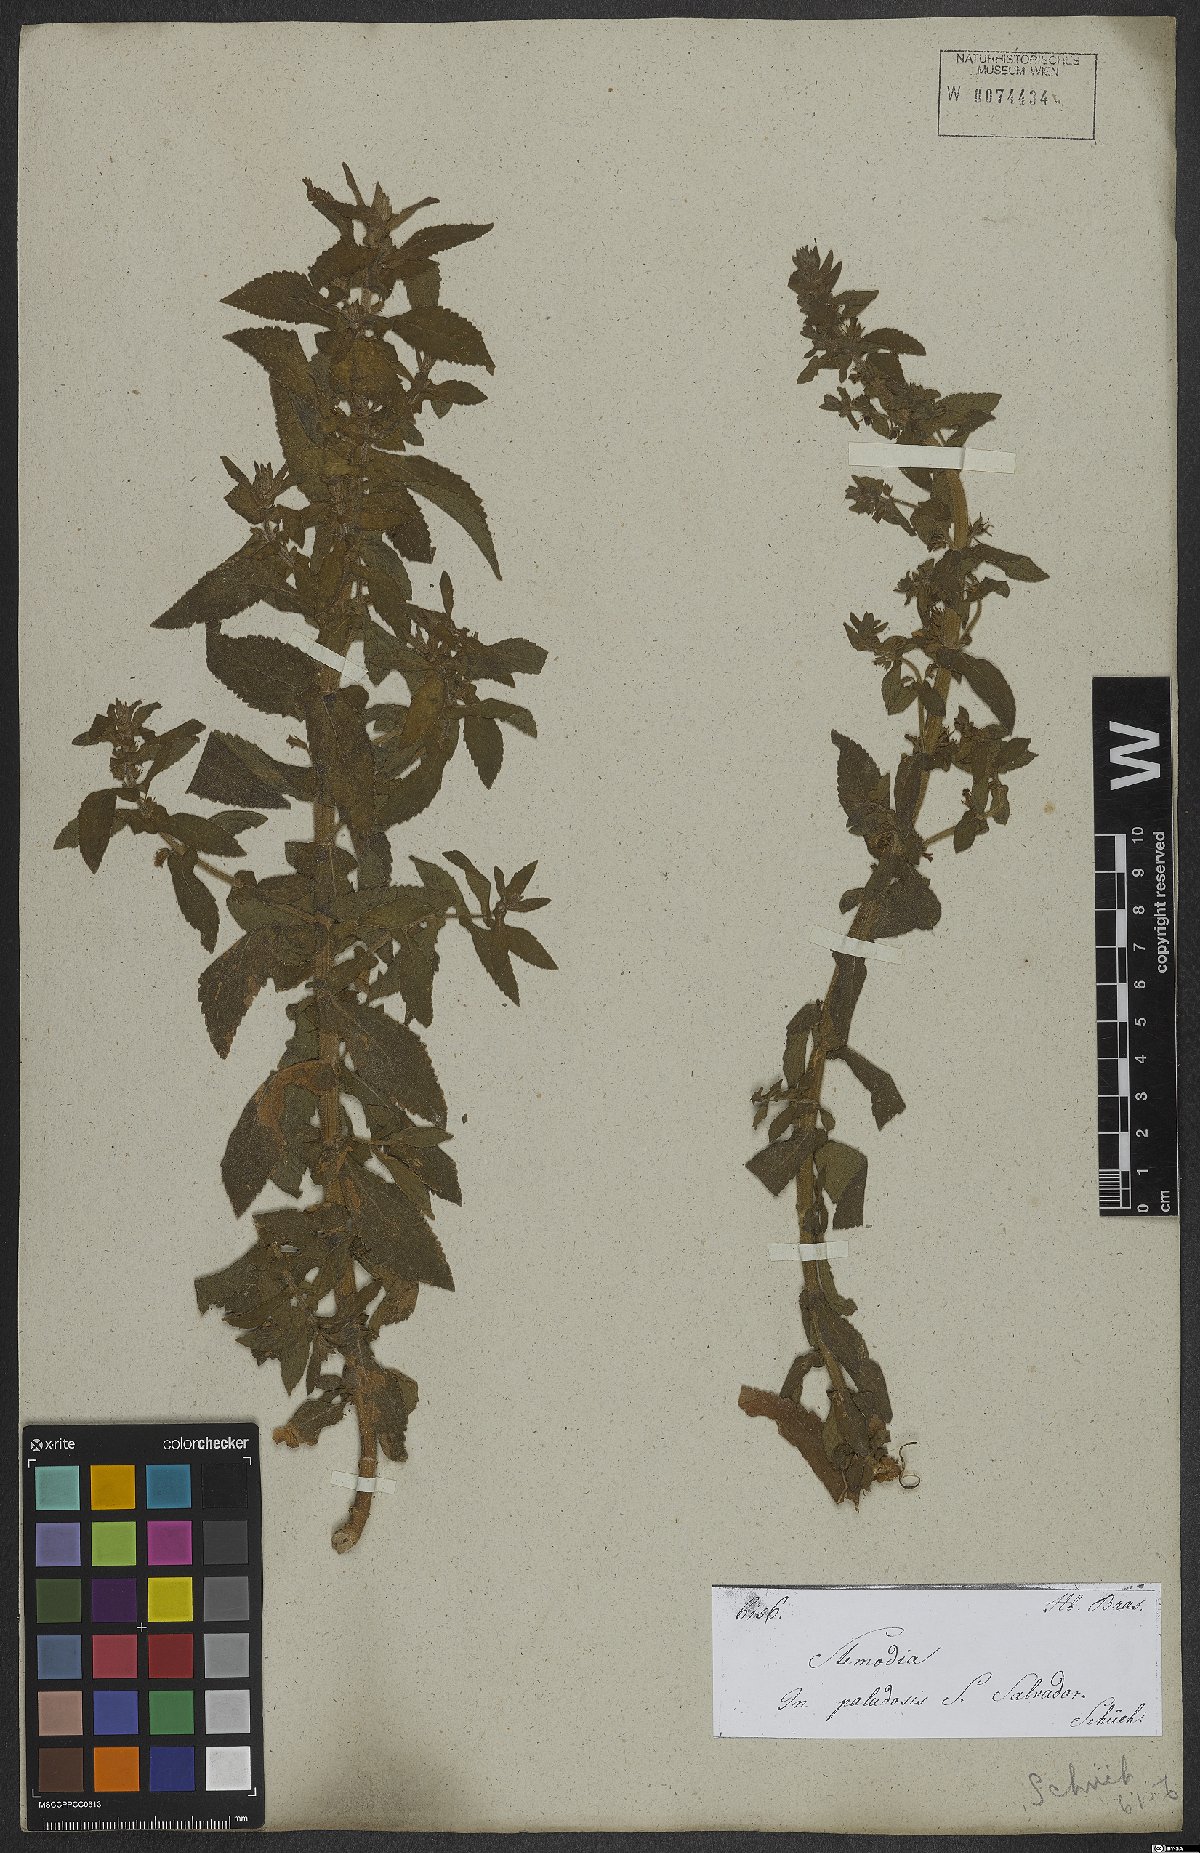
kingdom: Plantae
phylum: Tracheophyta
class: Magnoliopsida
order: Lamiales
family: Plantaginaceae
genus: Stemodia
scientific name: Stemodia
